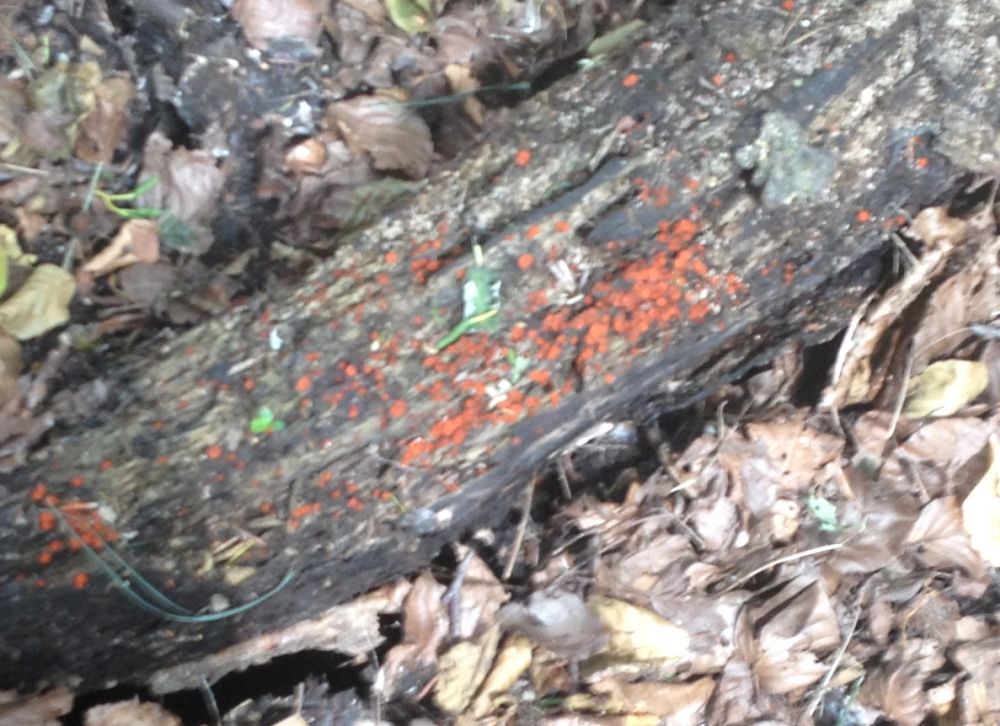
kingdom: Fungi
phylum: Ascomycota
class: Pezizomycetes
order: Pezizales
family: Pyronemataceae
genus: Scutellinia
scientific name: Scutellinia
